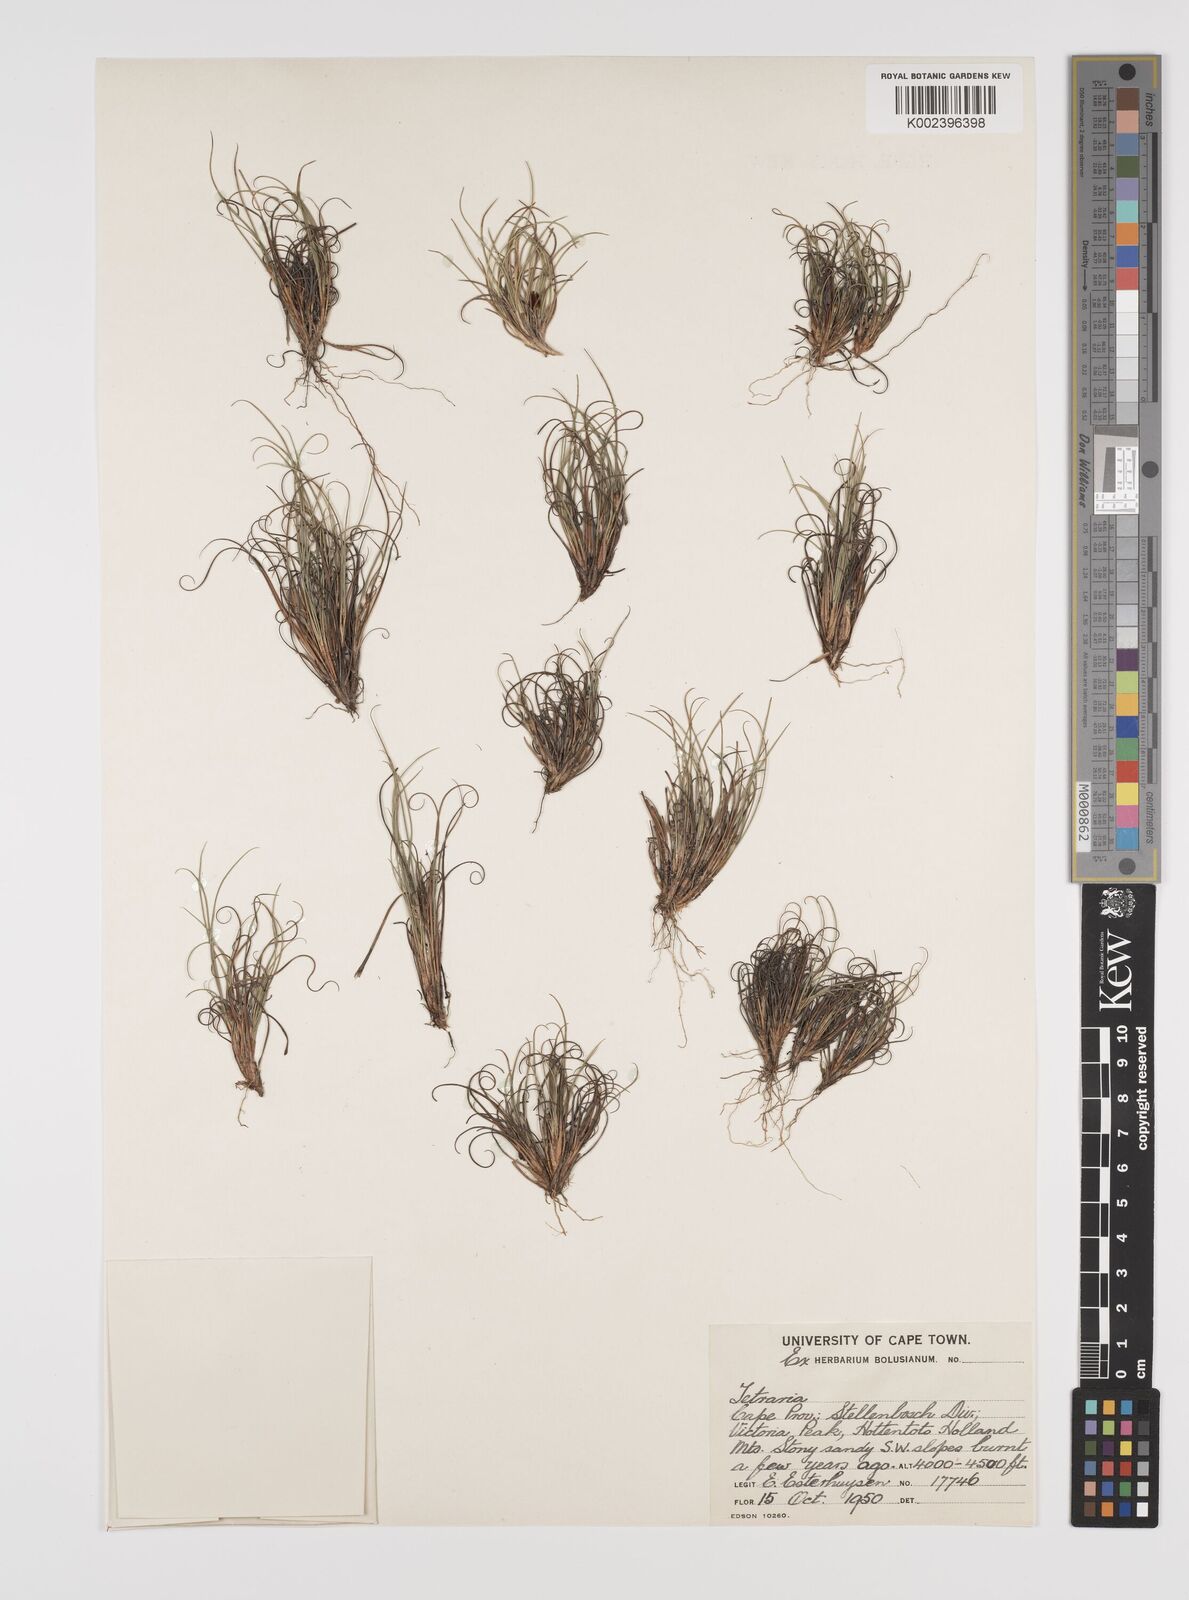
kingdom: Plantae
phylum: Tracheophyta
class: Liliopsida
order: Poales
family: Cyperaceae
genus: Tetraria
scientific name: Tetraria
